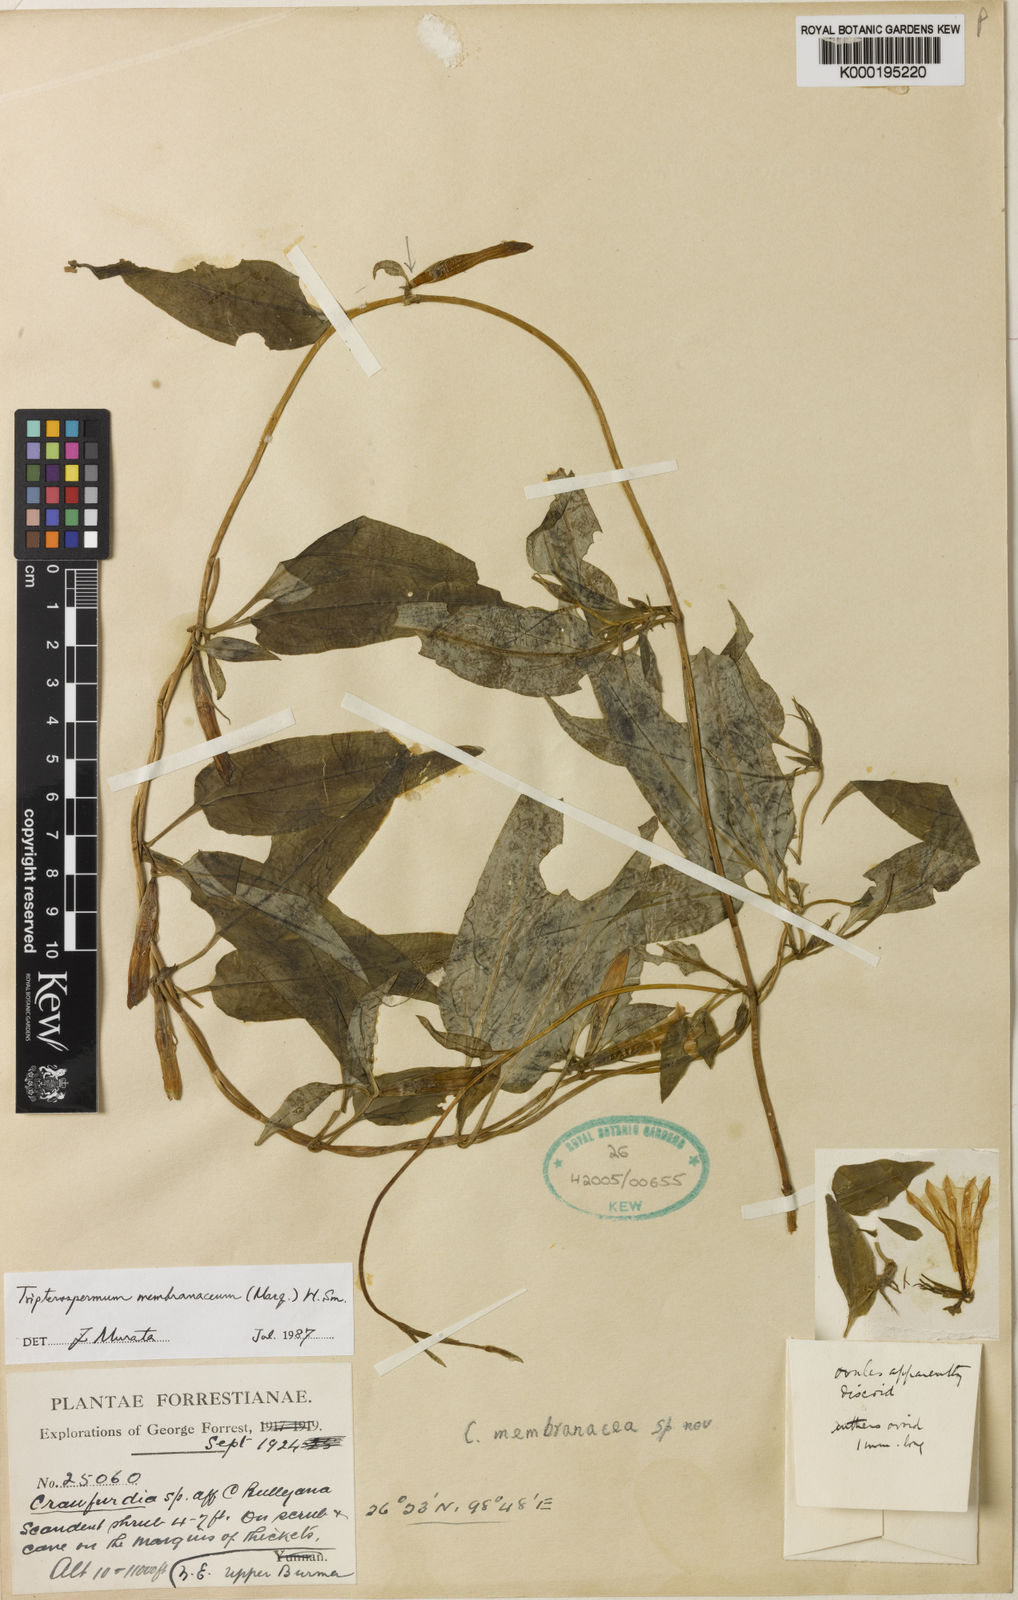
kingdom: Plantae
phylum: Tracheophyta
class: Magnoliopsida
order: Gentianales
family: Gentianaceae
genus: Tripterospermum
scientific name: Tripterospermum membranaceum
